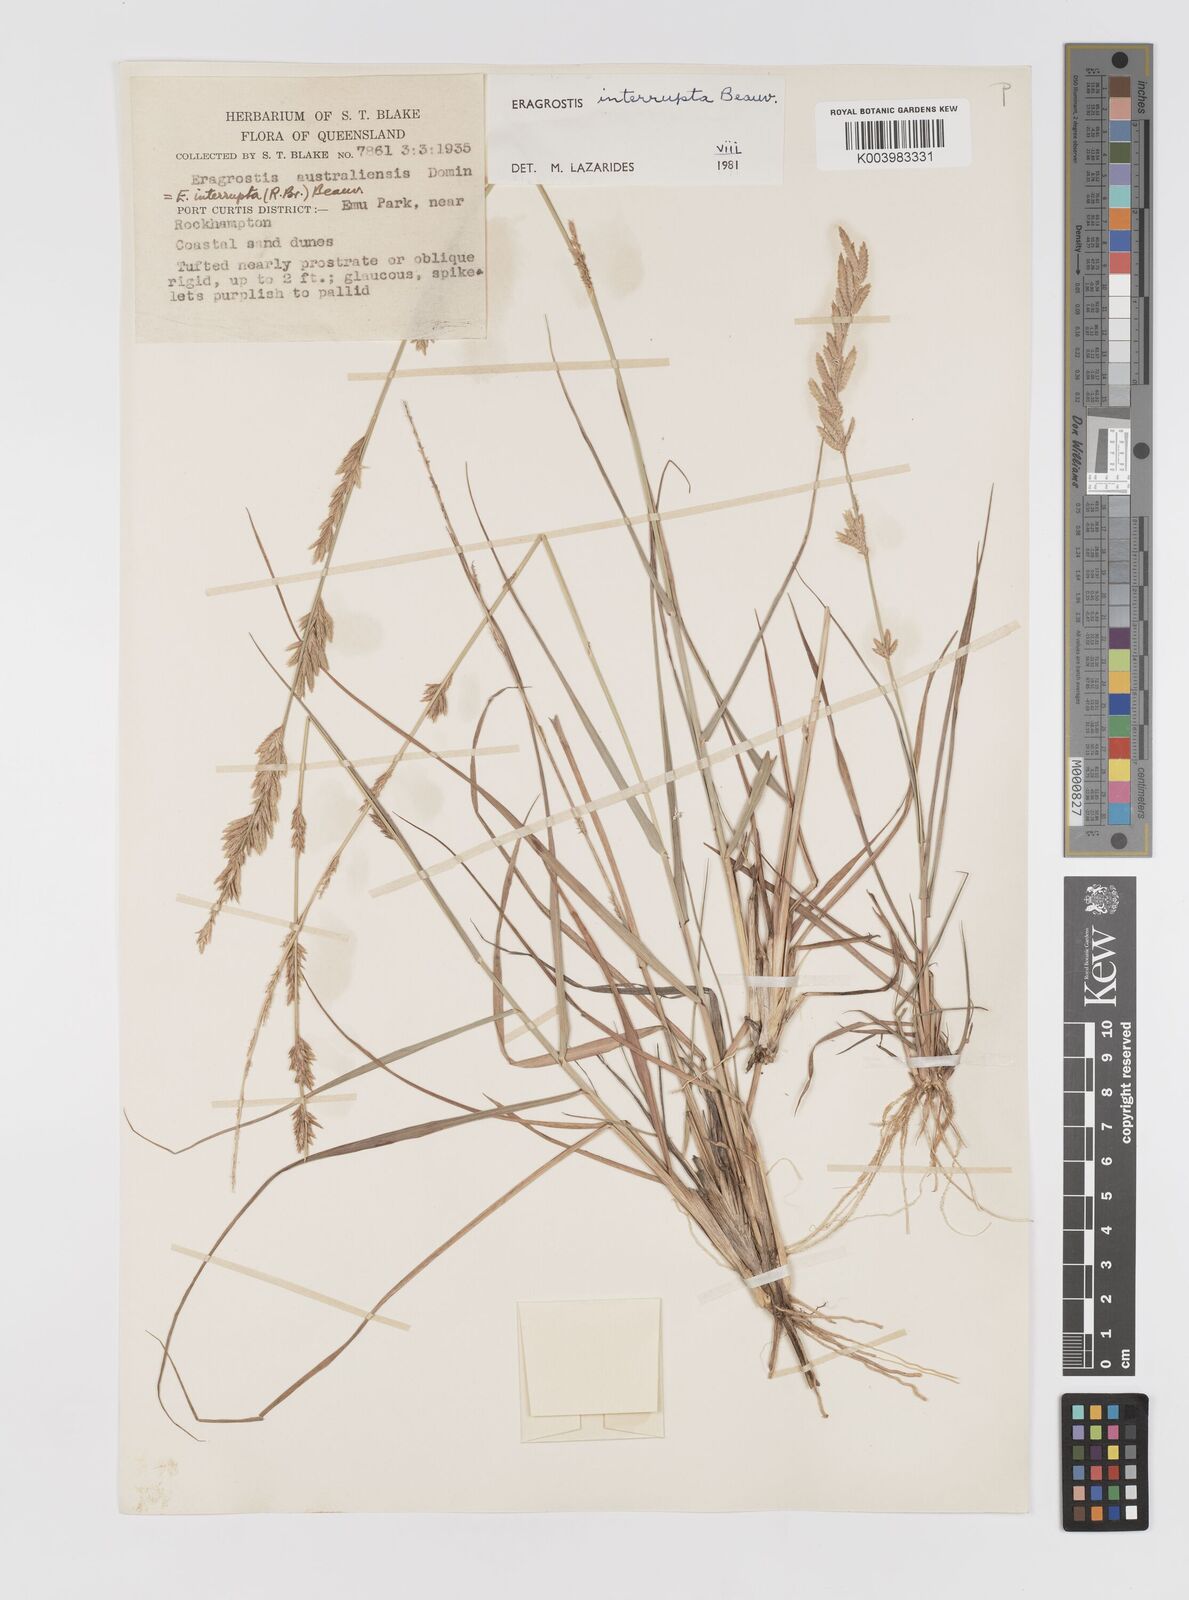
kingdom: Plantae
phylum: Tracheophyta
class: Liliopsida
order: Poales
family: Poaceae
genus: Eragrostis
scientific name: Eragrostis interrupta
